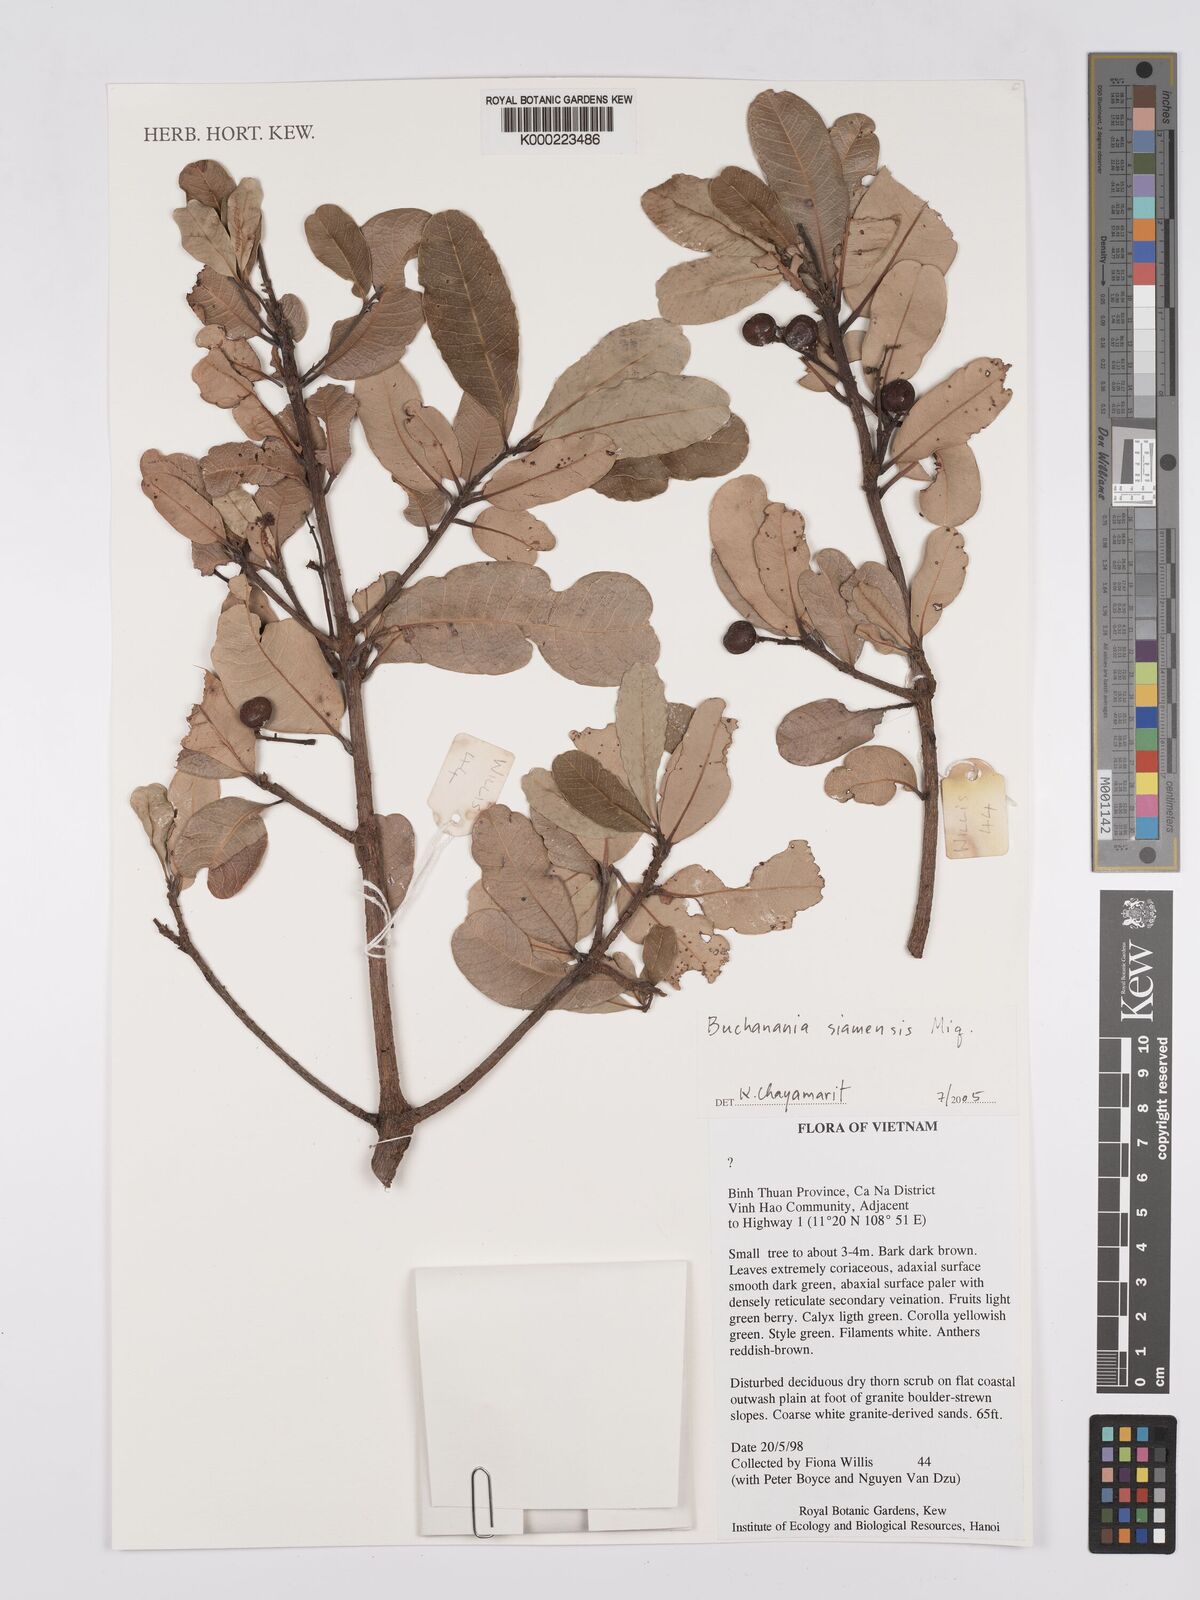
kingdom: Plantae
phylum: Tracheophyta
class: Magnoliopsida
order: Sapindales
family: Anacardiaceae
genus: Buchanania
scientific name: Buchanania siamensis
